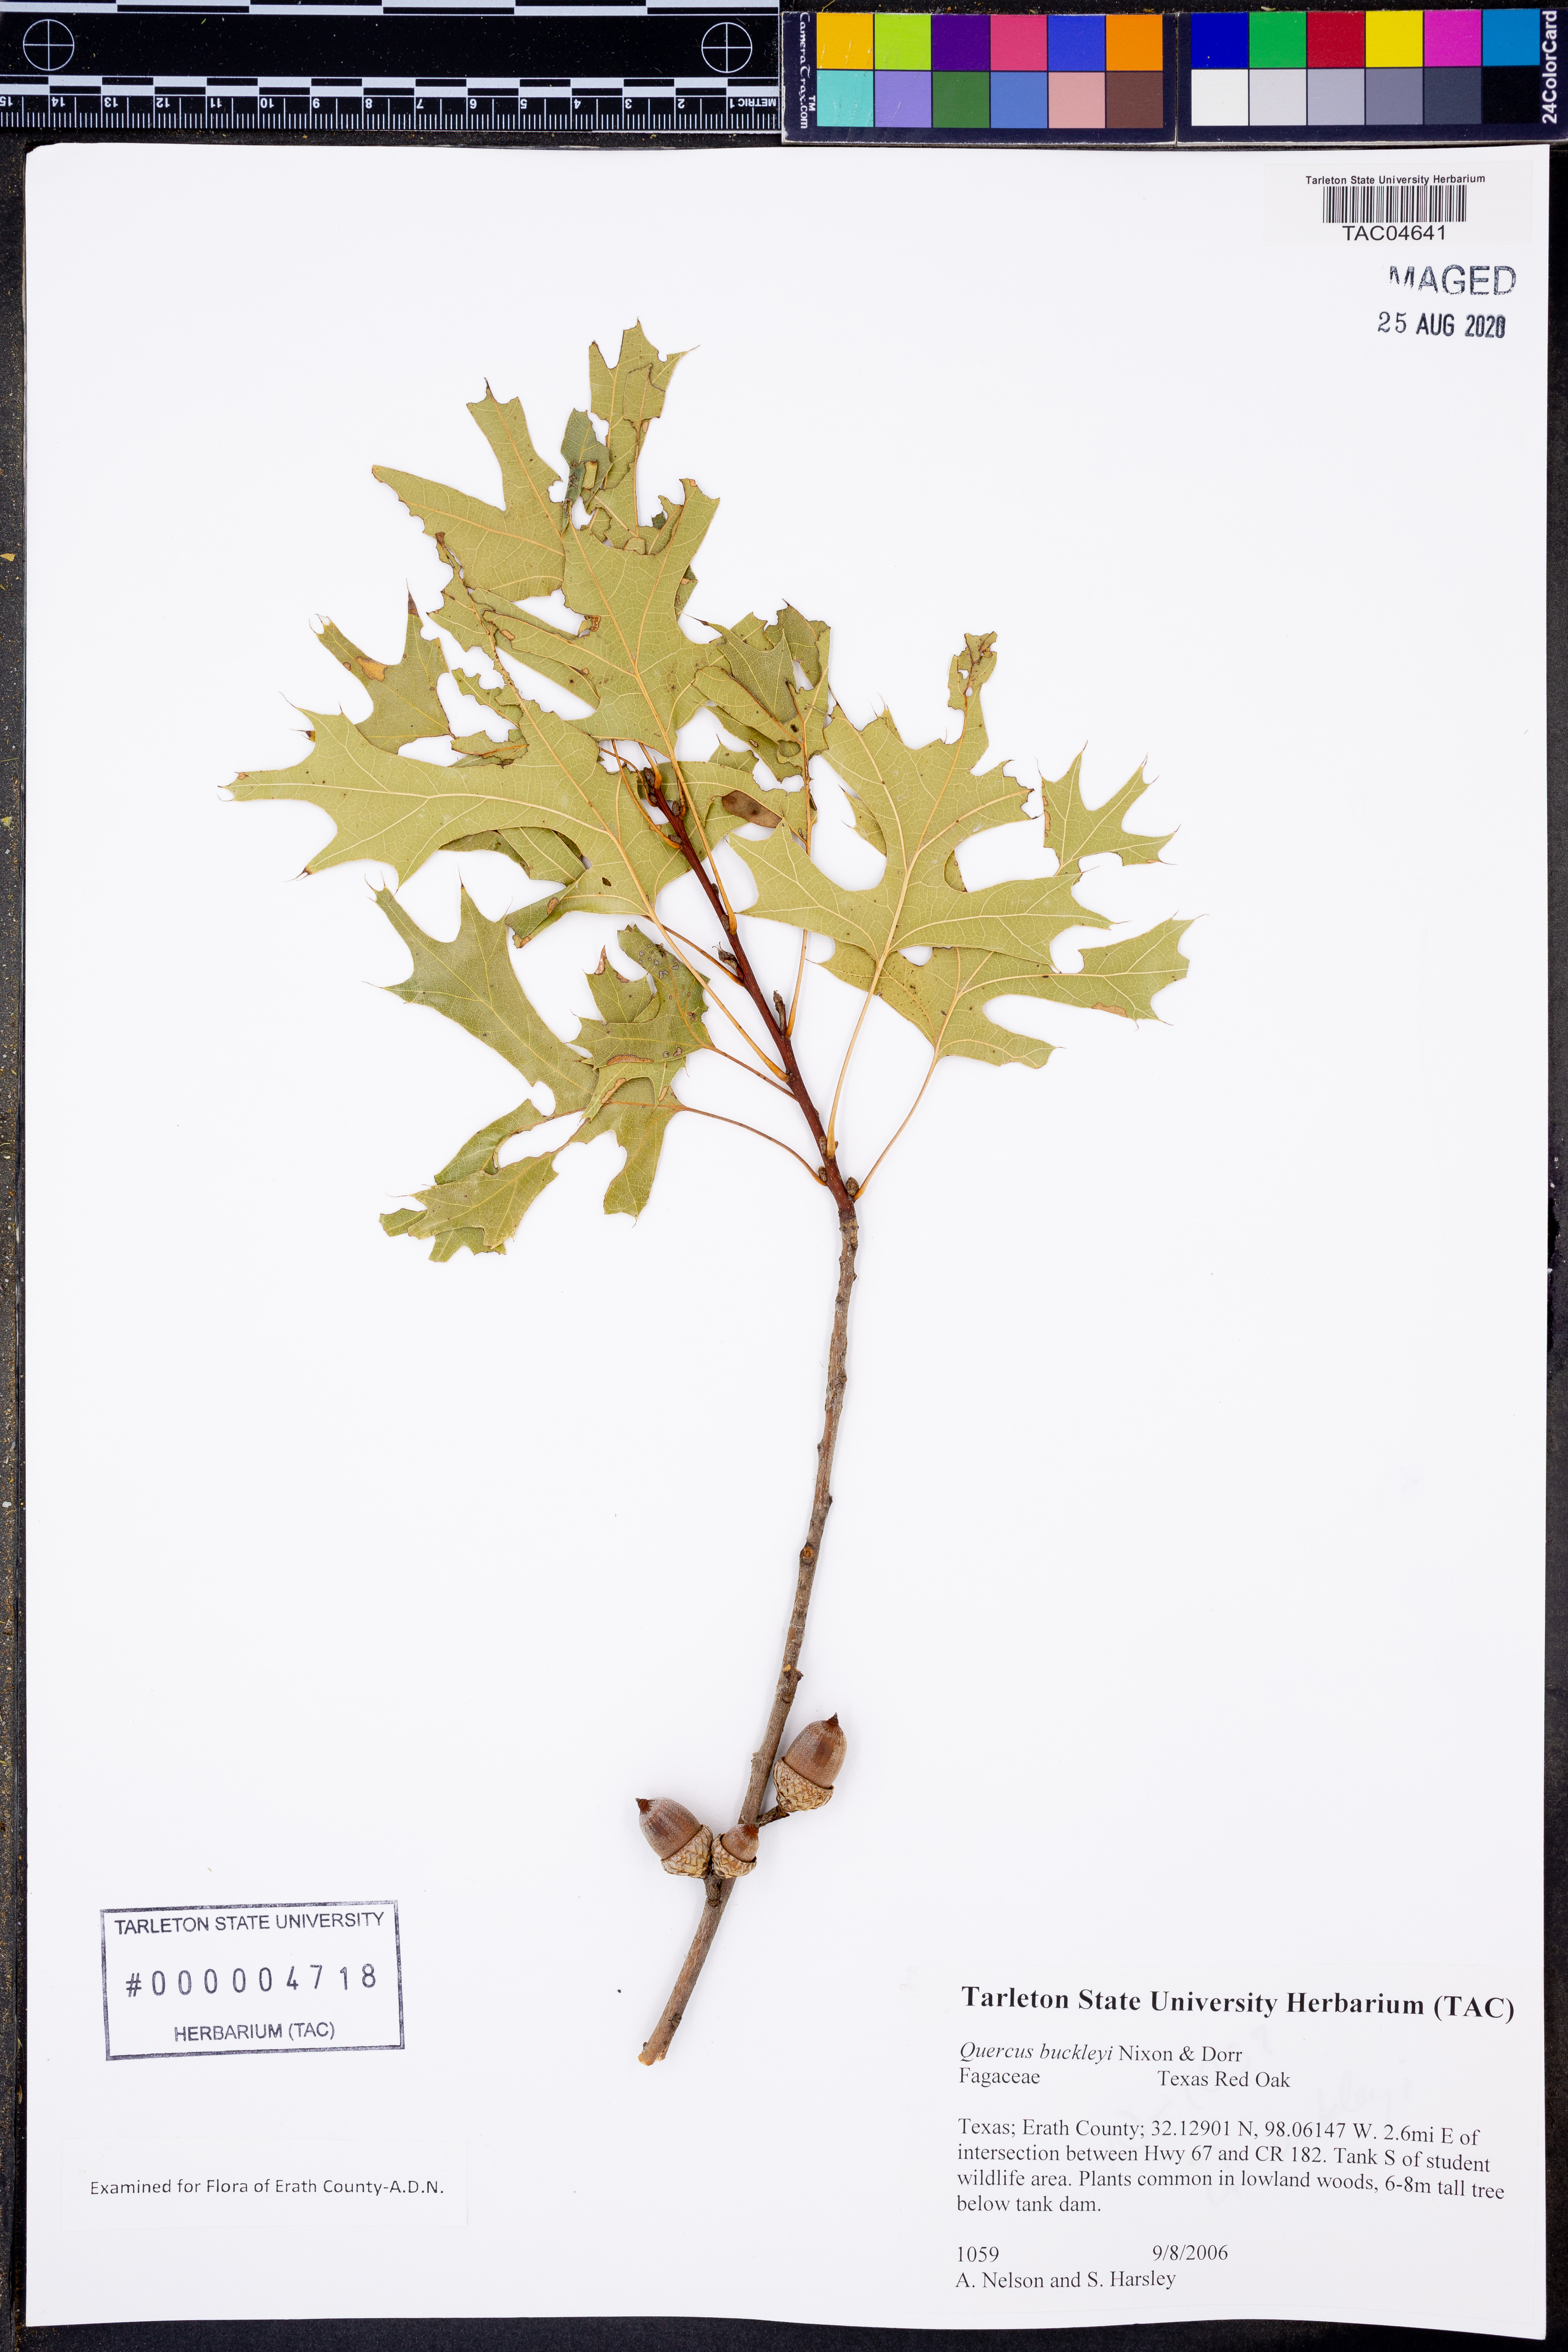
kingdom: Plantae
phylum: Tracheophyta
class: Magnoliopsida
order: Fagales
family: Fagaceae
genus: Quercus
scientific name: Quercus buckleyi
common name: Buckley oak
